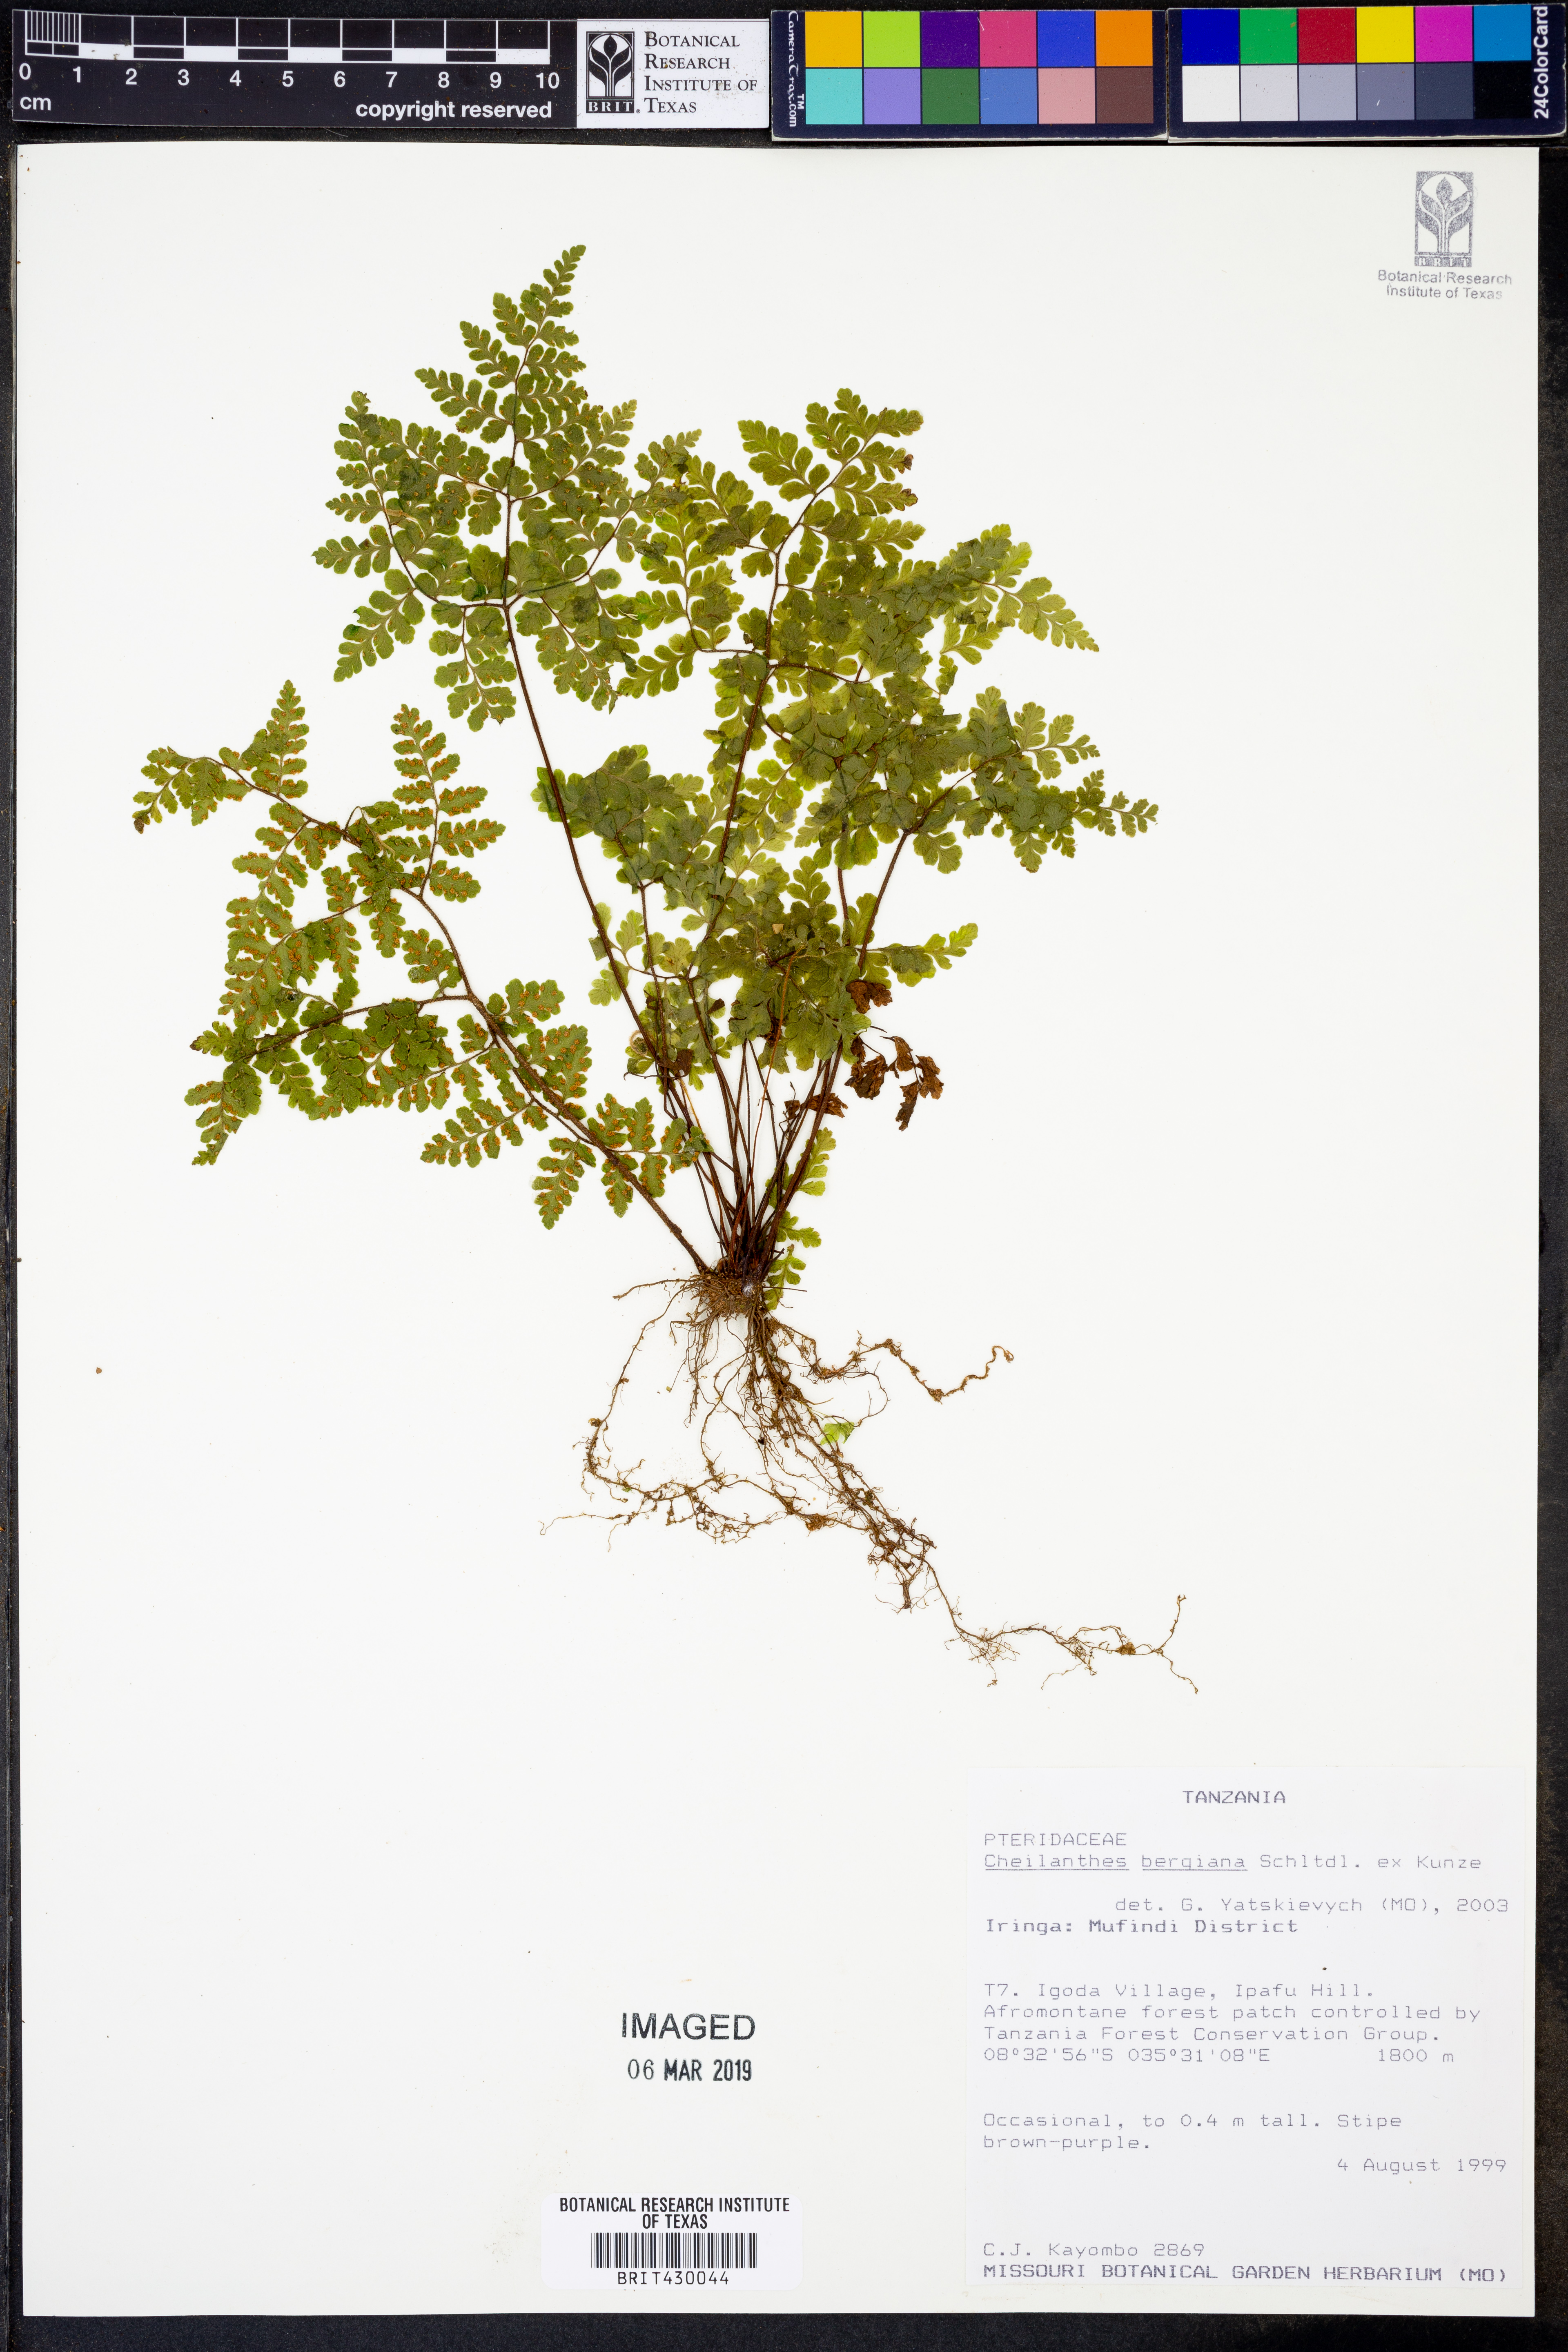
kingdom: Plantae
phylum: Tracheophyta
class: Polypodiopsida
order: Polypodiales
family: Pteridaceae
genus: Cheilanthes
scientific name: Cheilanthes bergiana
